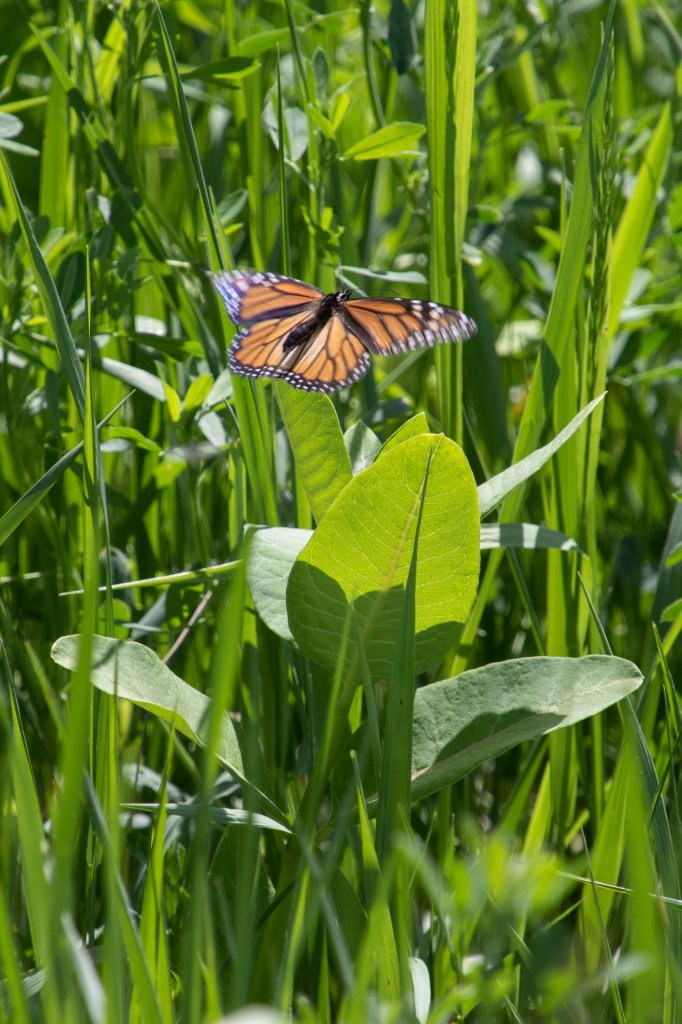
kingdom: Animalia
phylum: Arthropoda
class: Insecta
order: Lepidoptera
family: Nymphalidae
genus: Danaus
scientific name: Danaus plexippus
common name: Monarch
